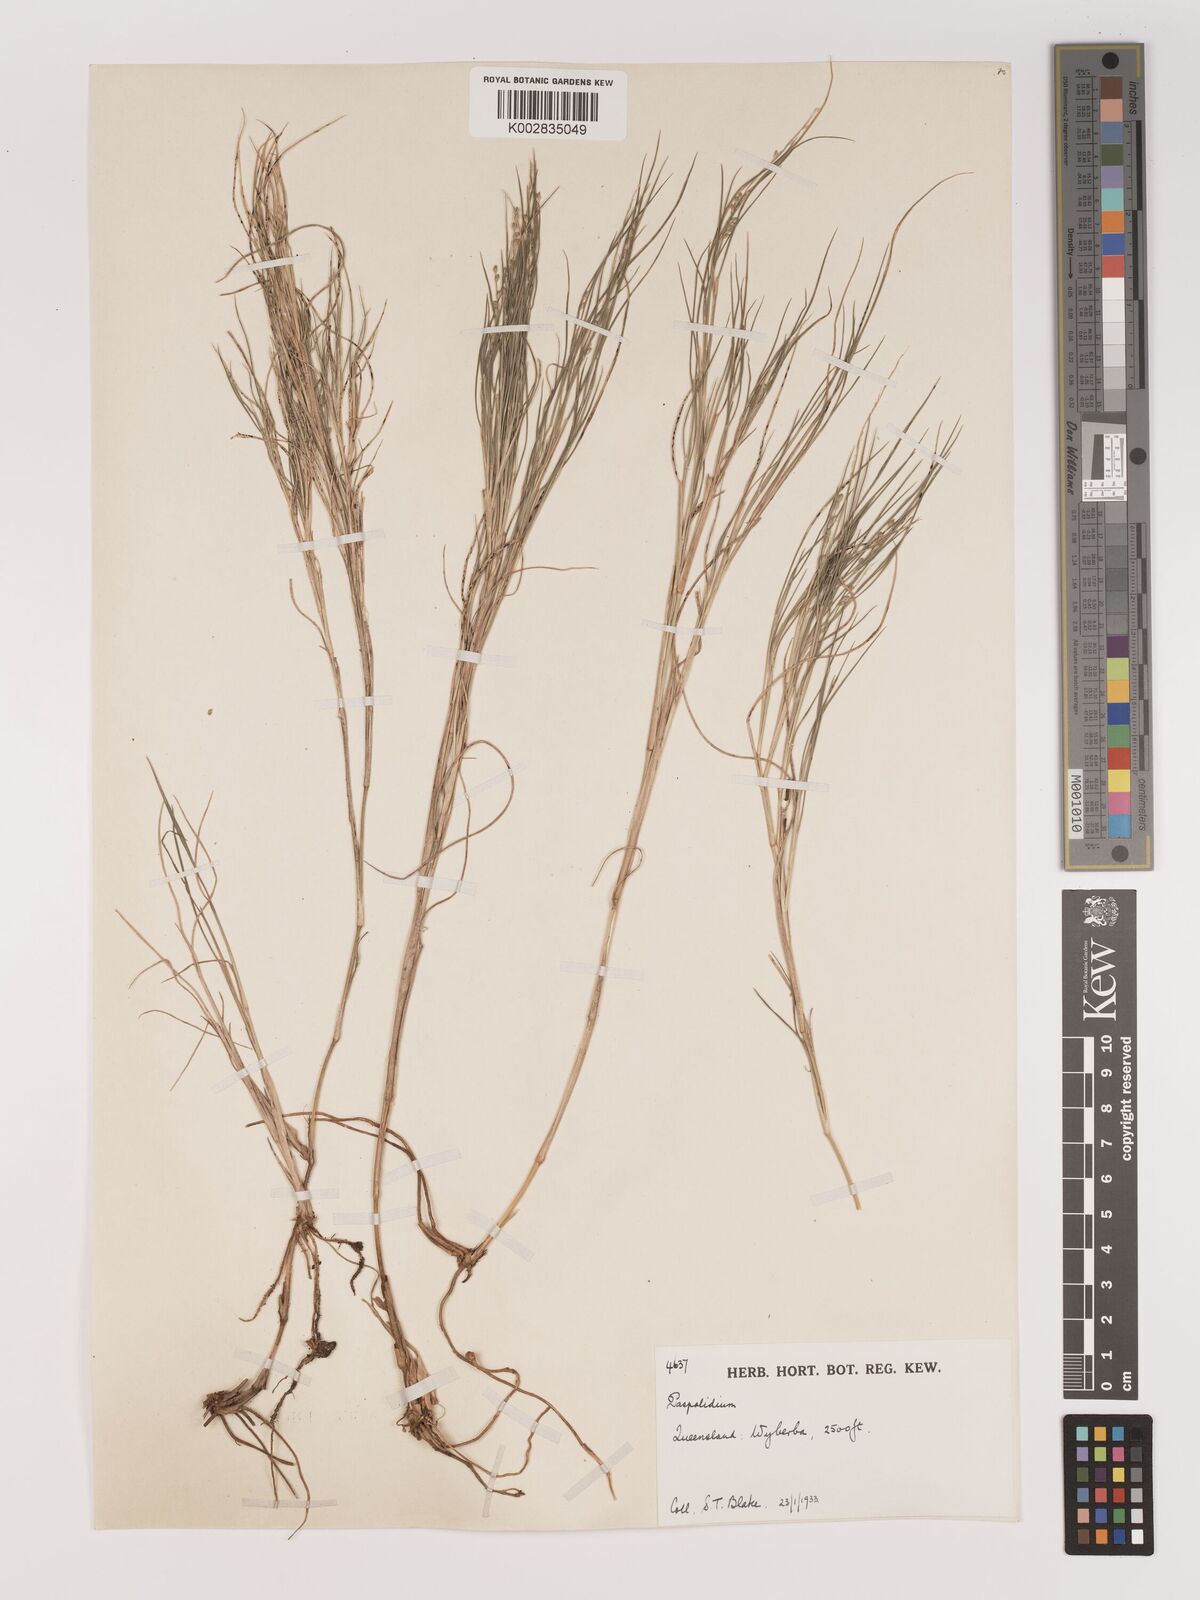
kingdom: Plantae
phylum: Tracheophyta
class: Liliopsida
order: Poales
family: Poaceae
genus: Setaria
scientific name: Setaria
